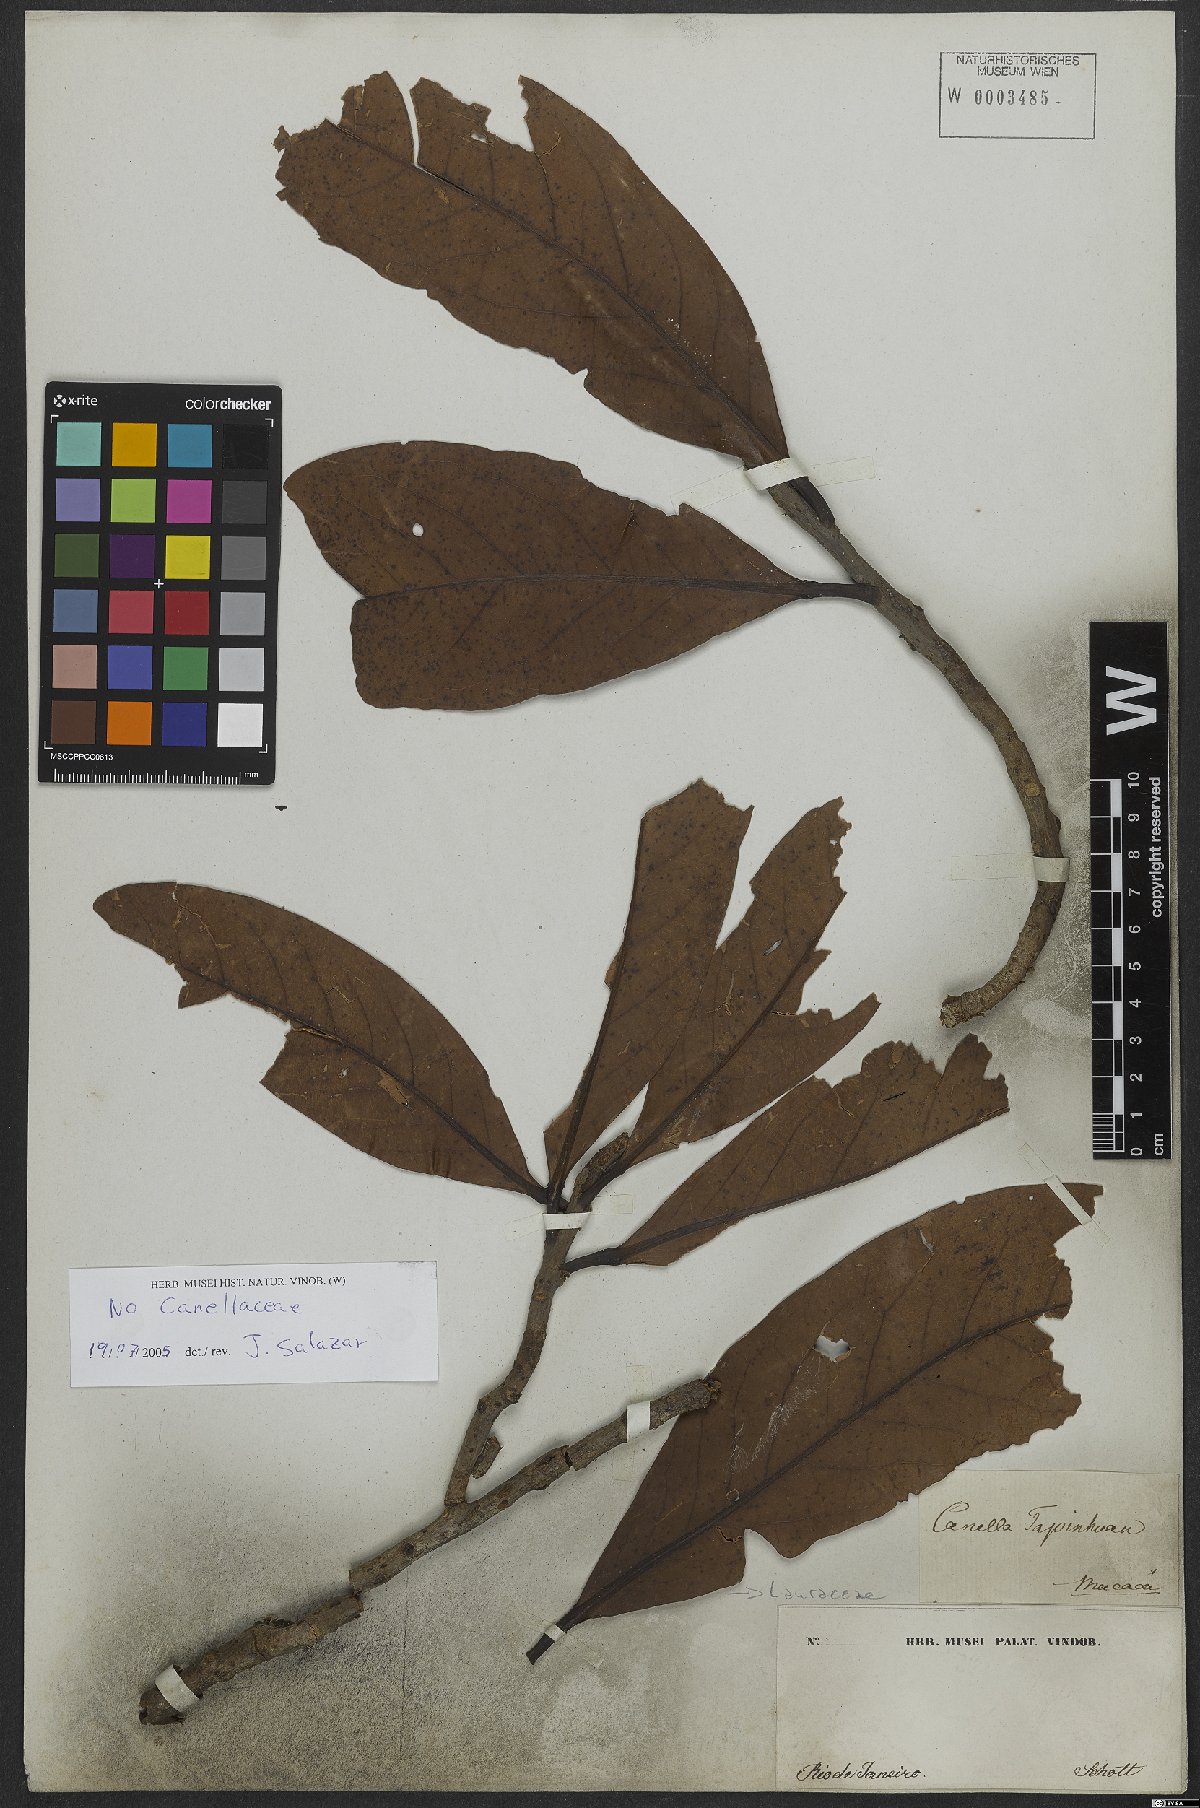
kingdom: Plantae
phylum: Tracheophyta
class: Magnoliopsida
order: Laurales
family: Lauraceae
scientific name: Lauraceae
